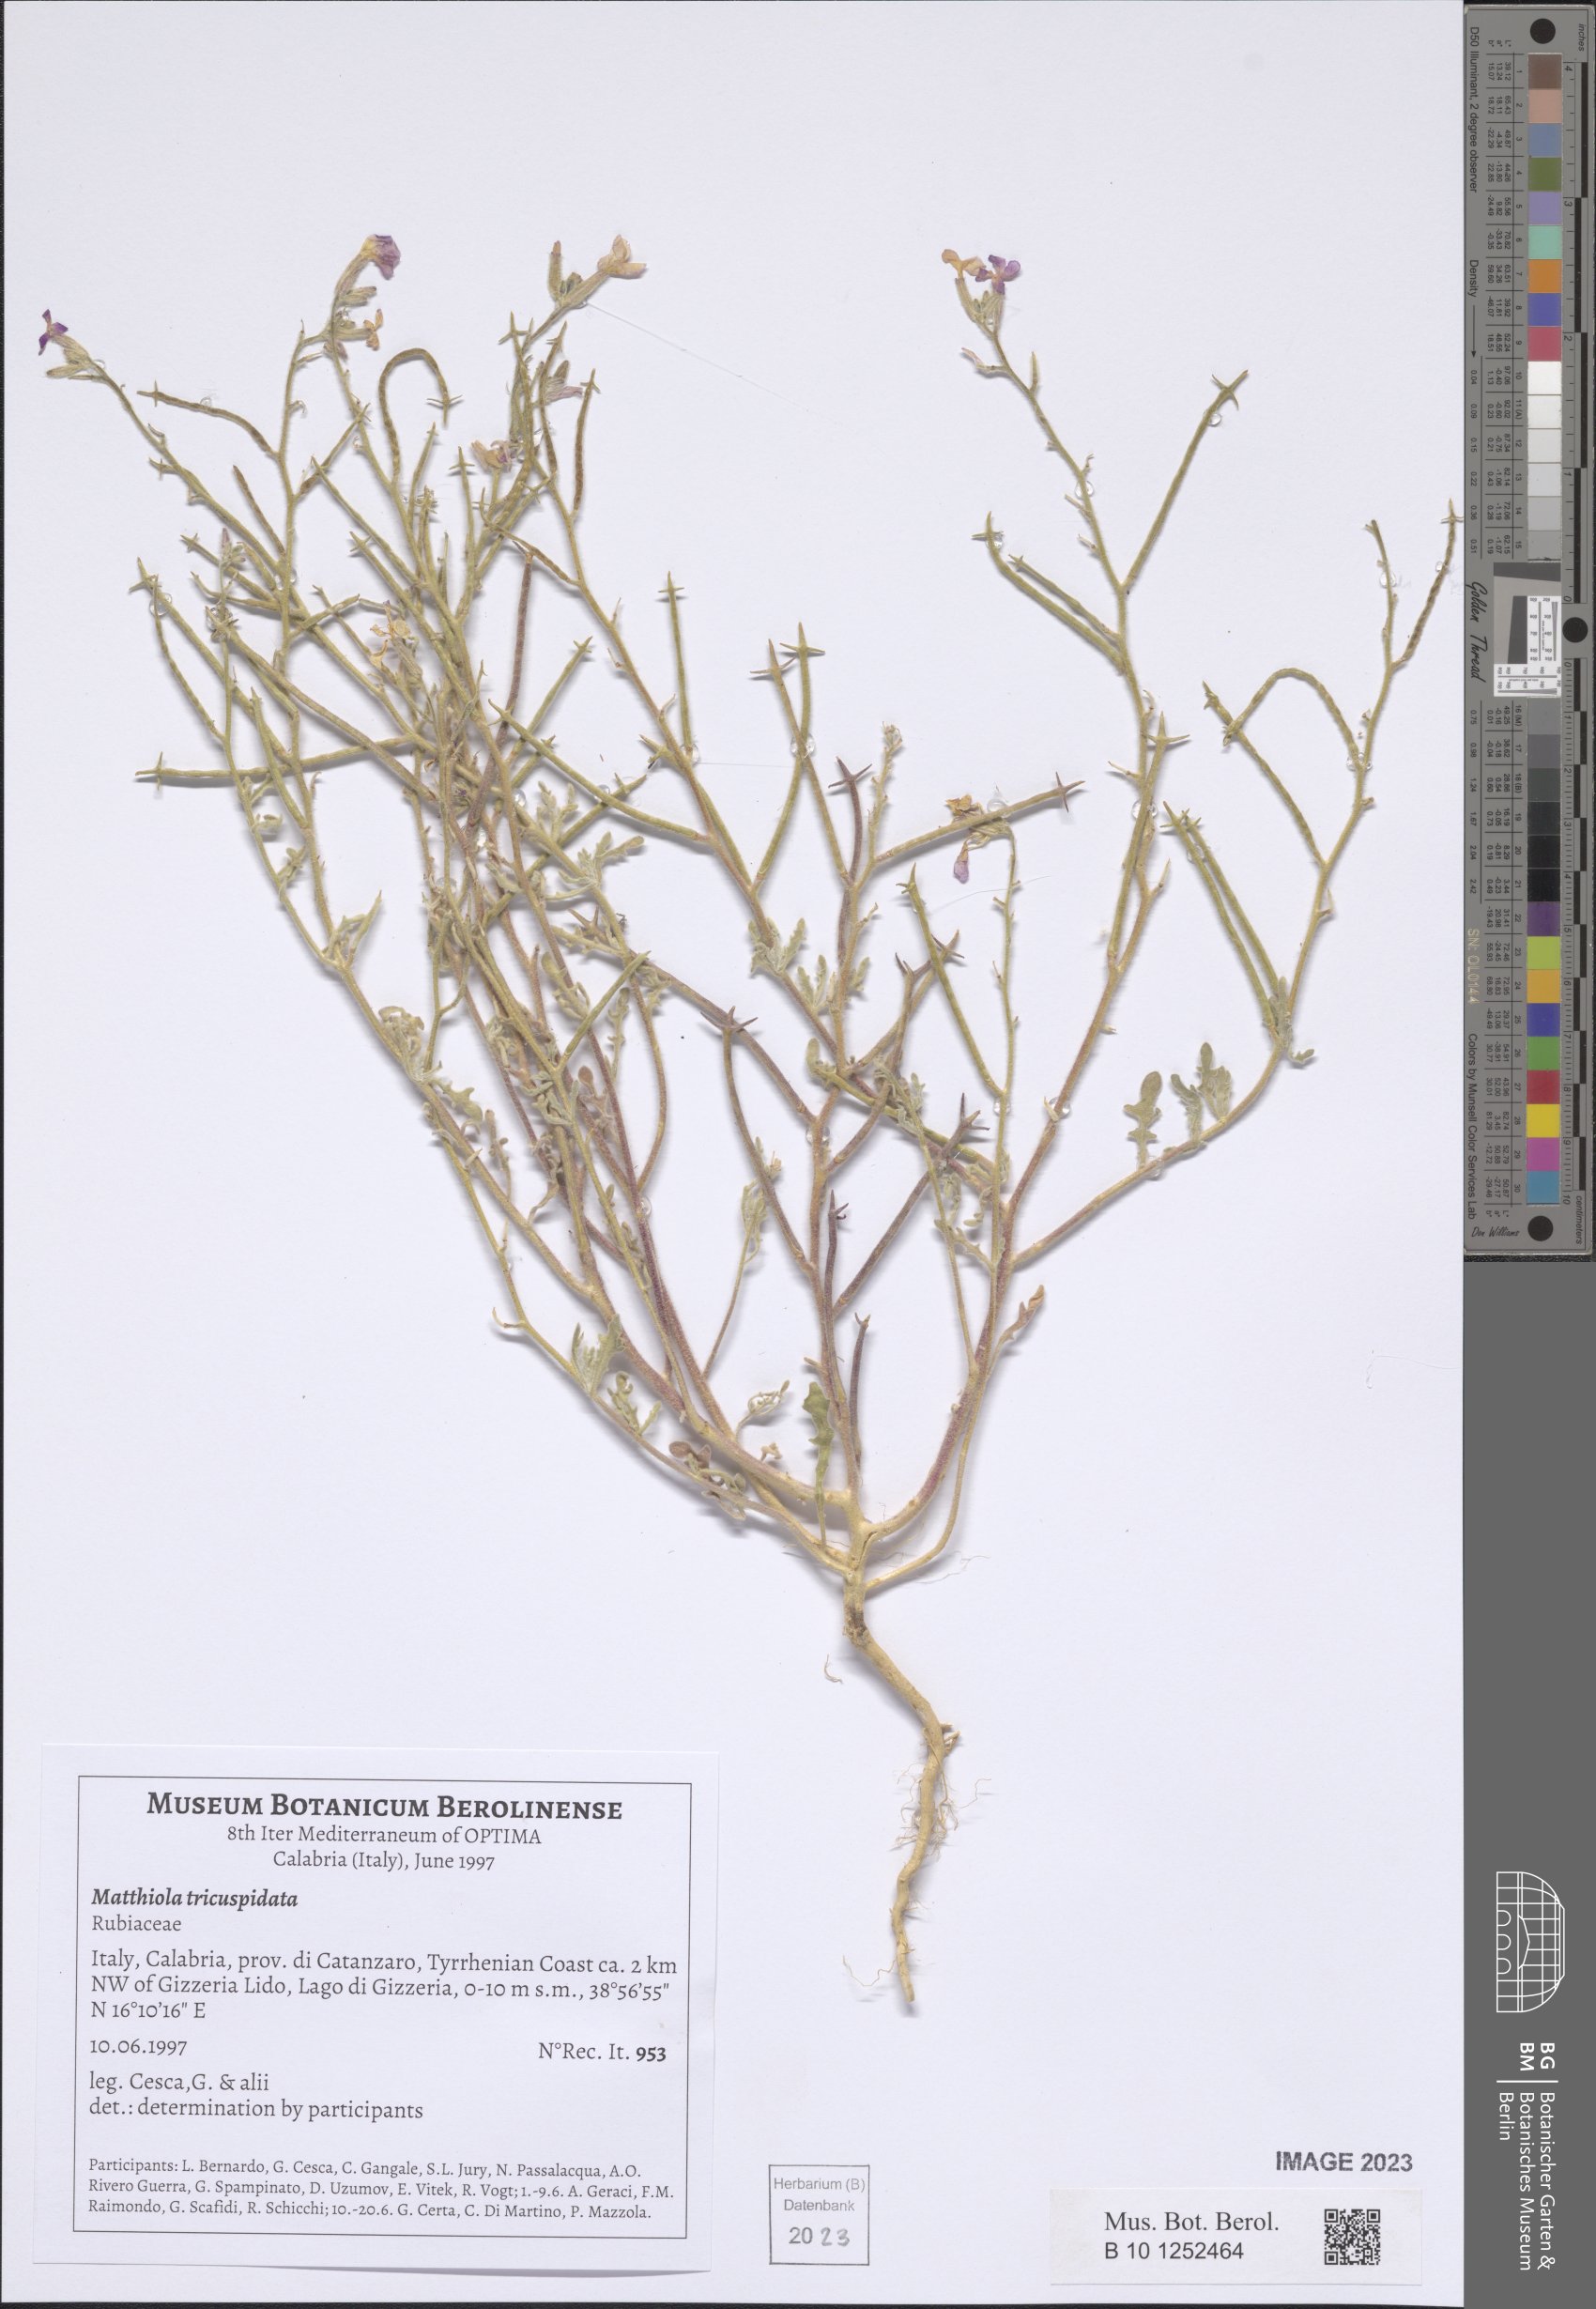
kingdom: Plantae
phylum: Tracheophyta
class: Magnoliopsida
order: Brassicales
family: Brassicaceae
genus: Matthiola
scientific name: Matthiola tricuspidata
